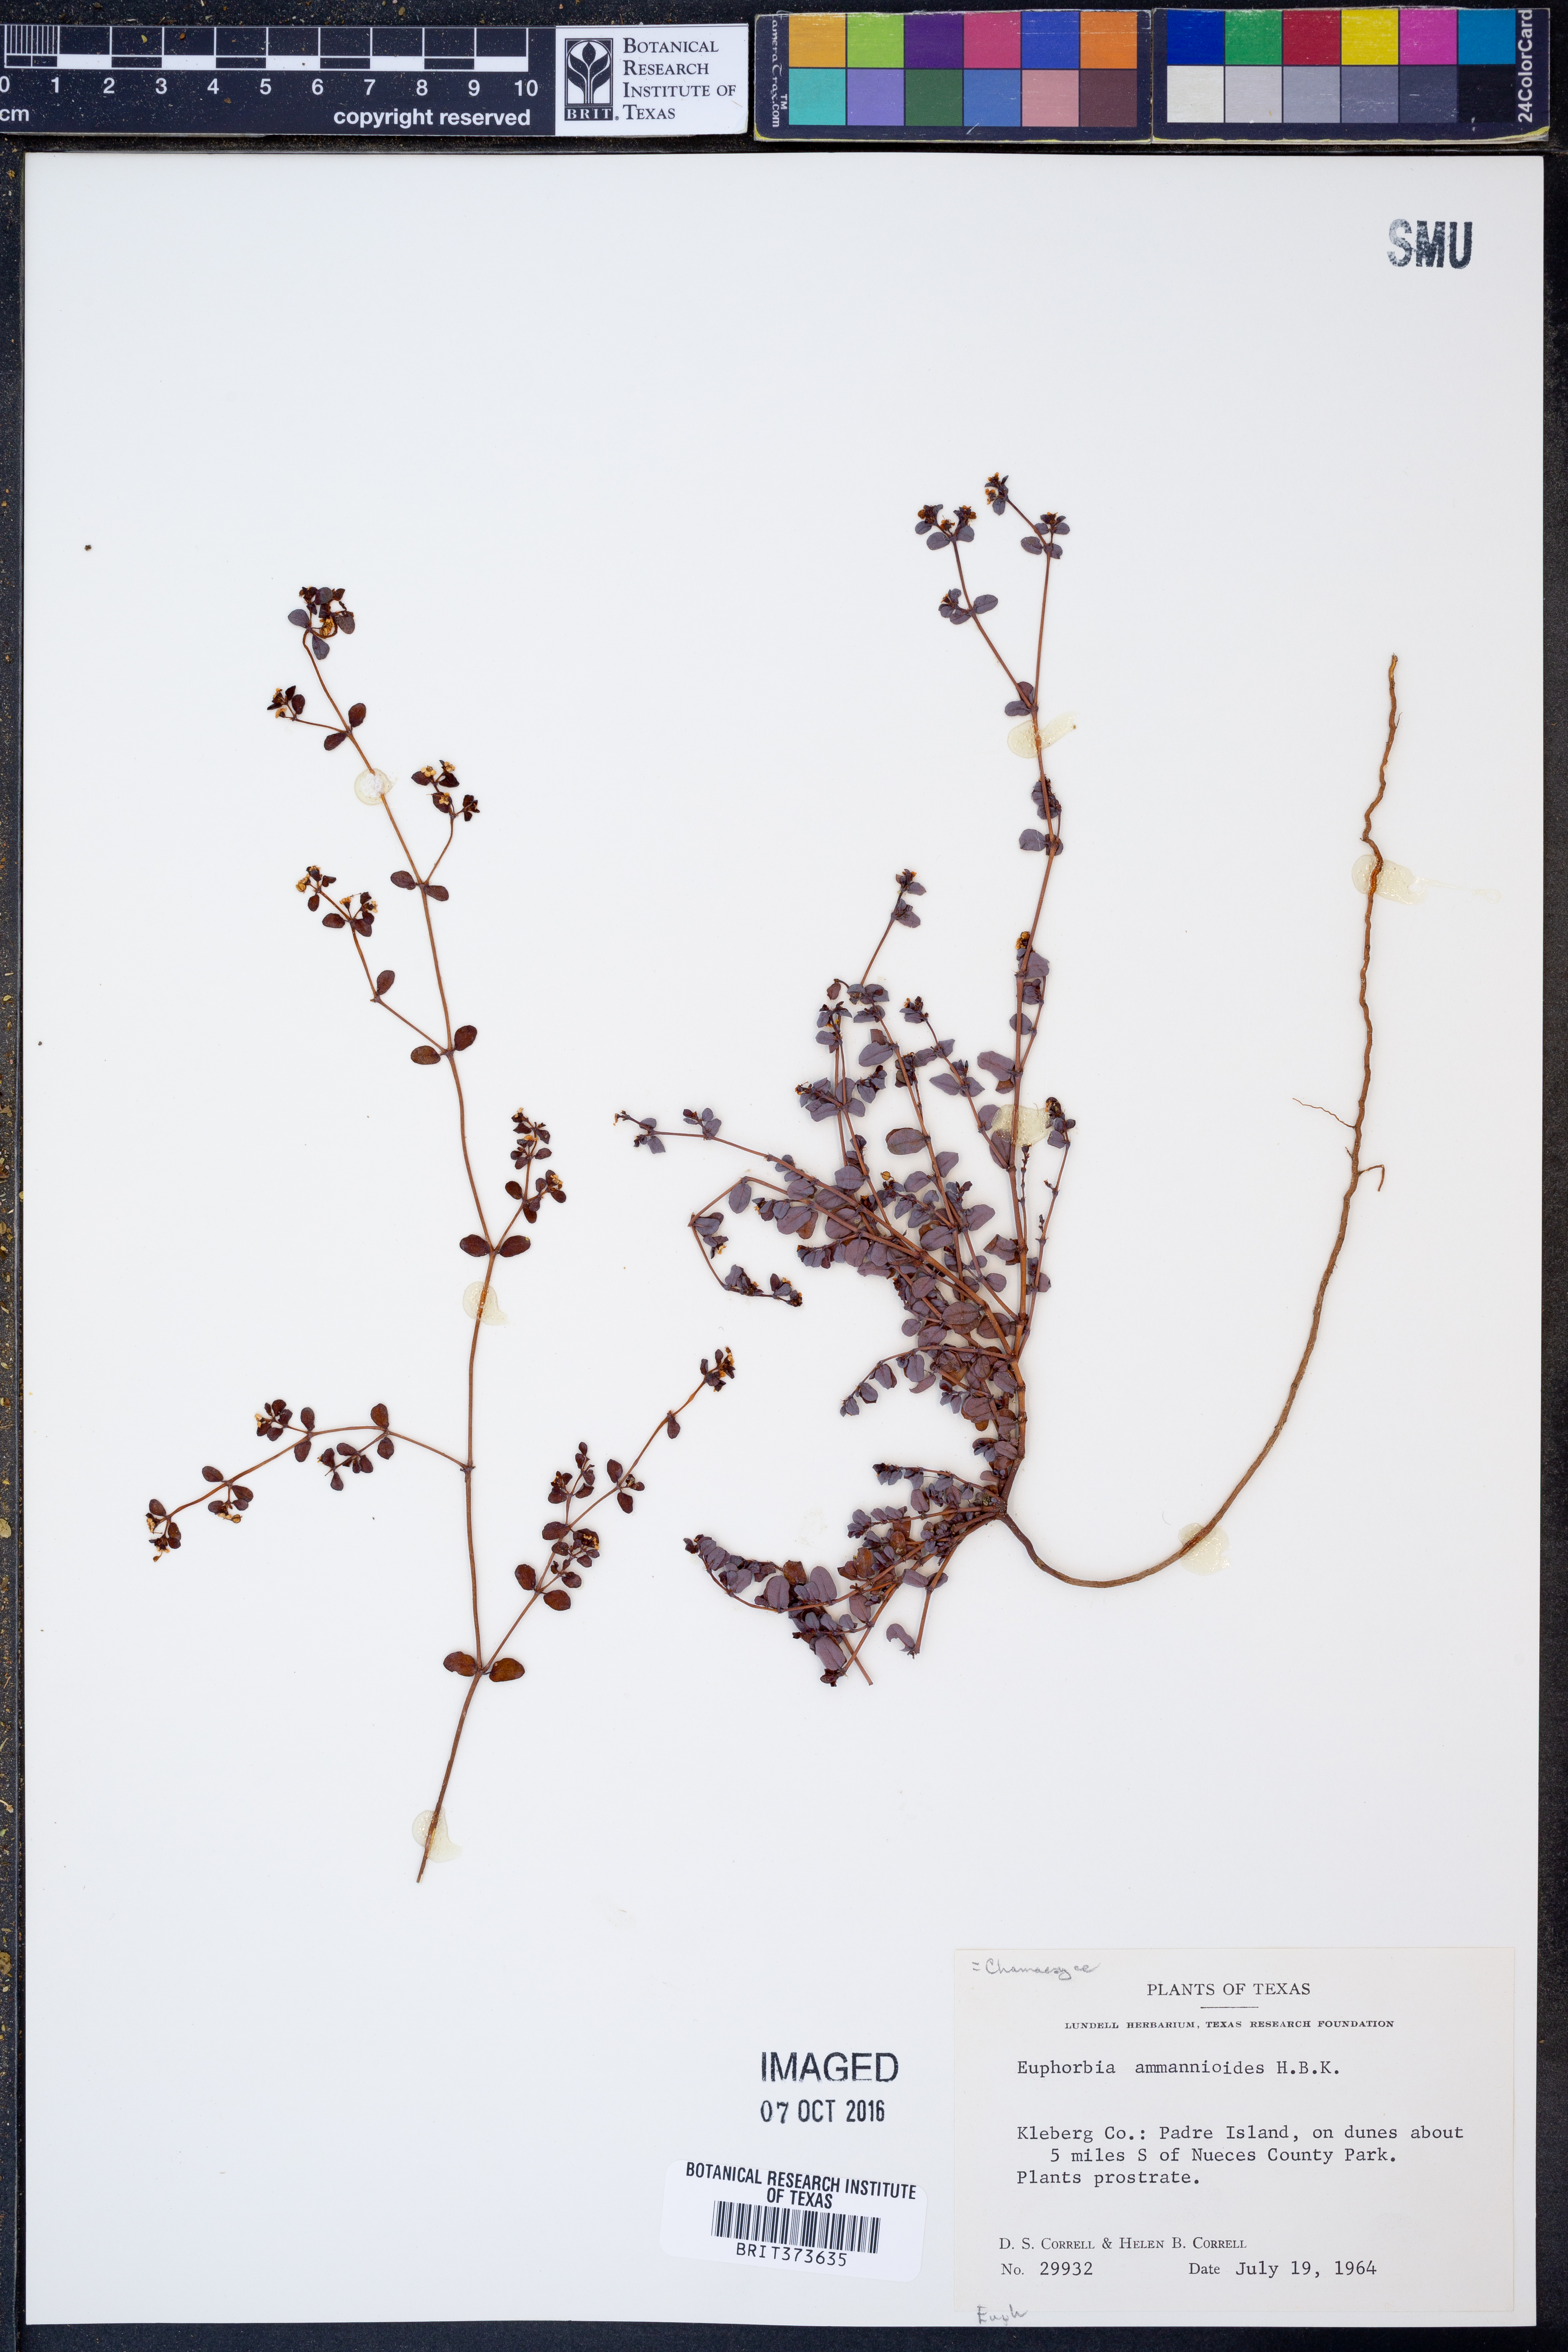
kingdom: Plantae
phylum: Tracheophyta
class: Magnoliopsida
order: Malpighiales
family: Euphorbiaceae
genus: Euphorbia
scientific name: Euphorbia bombensis
